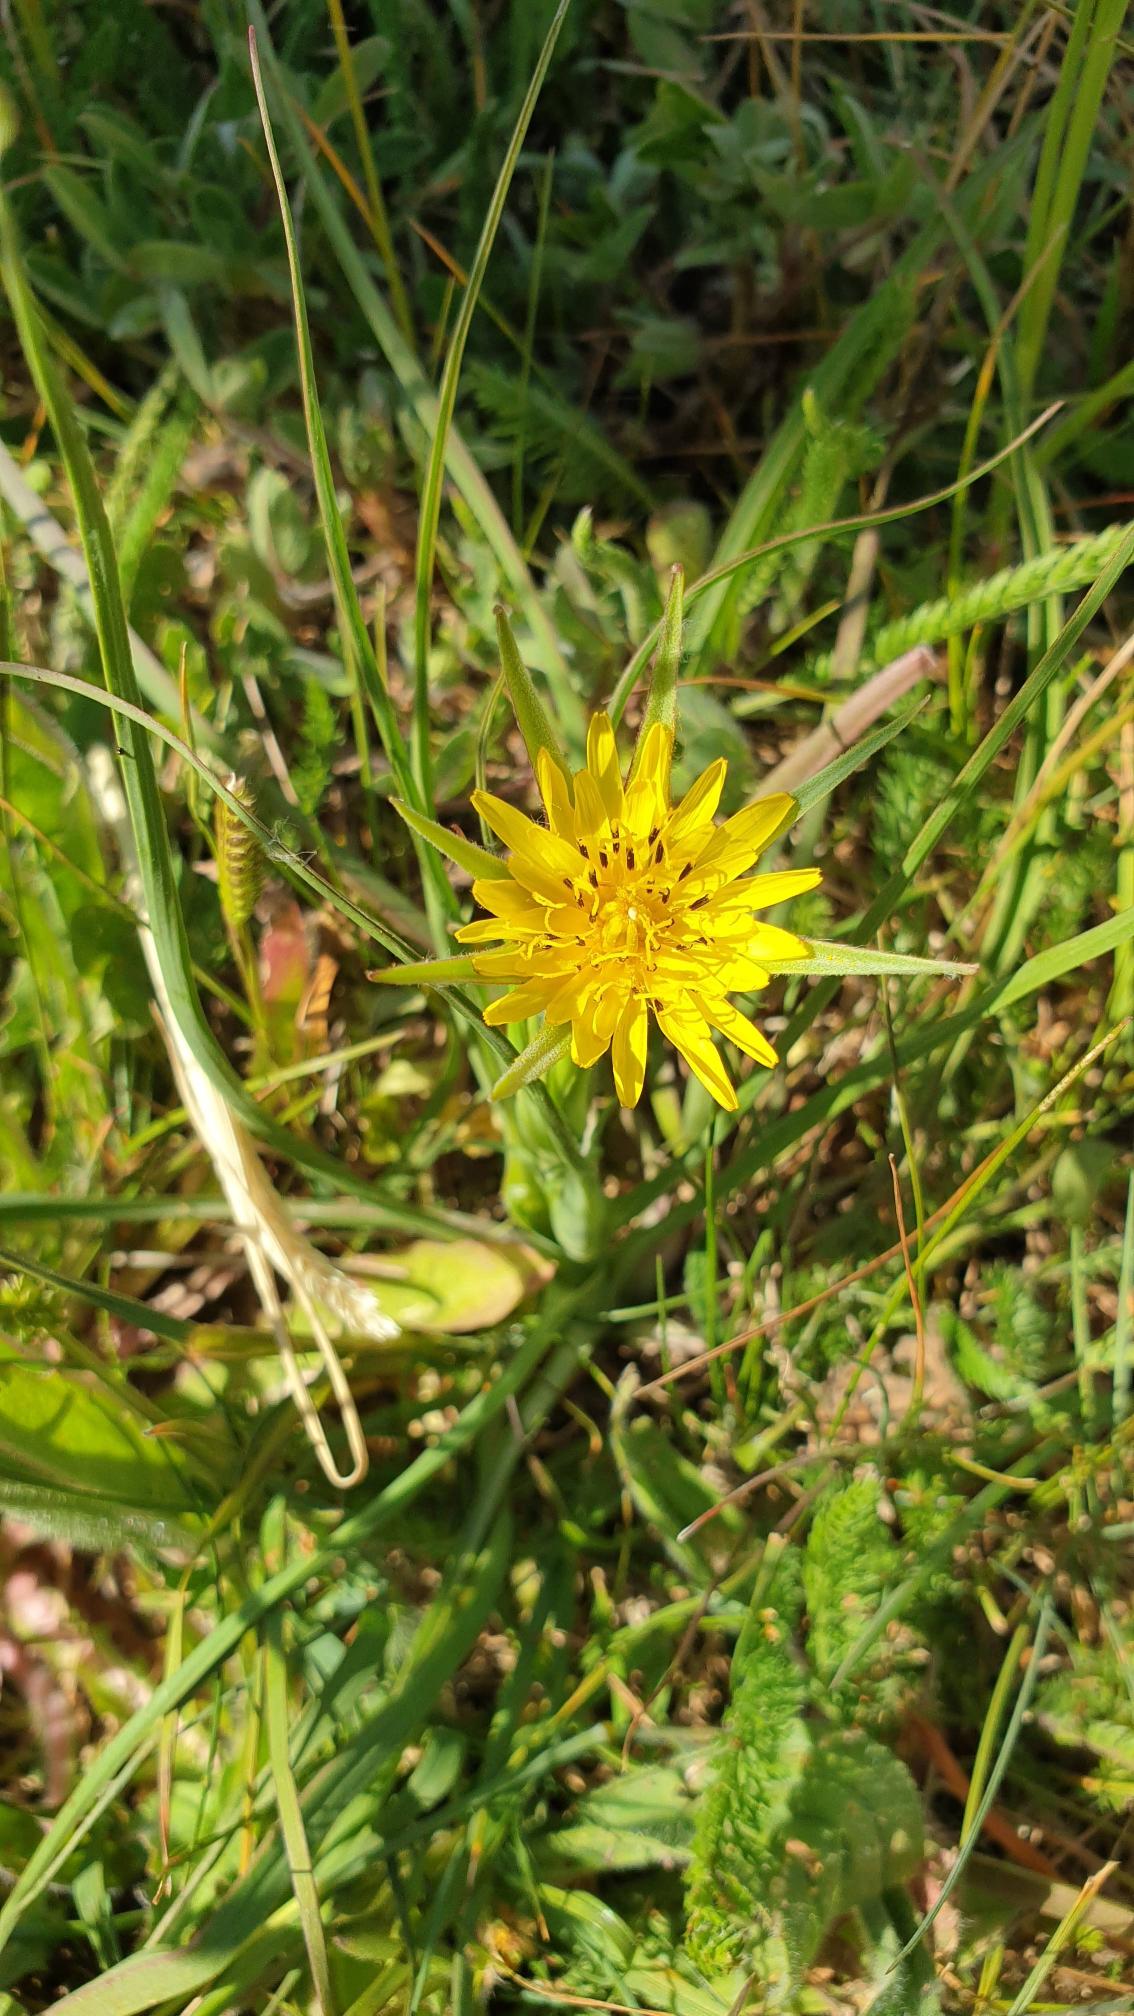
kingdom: Plantae
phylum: Tracheophyta
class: Magnoliopsida
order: Asterales
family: Asteraceae
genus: Tragopogon
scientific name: Tragopogon minor
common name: Småkronet gedeskæg
